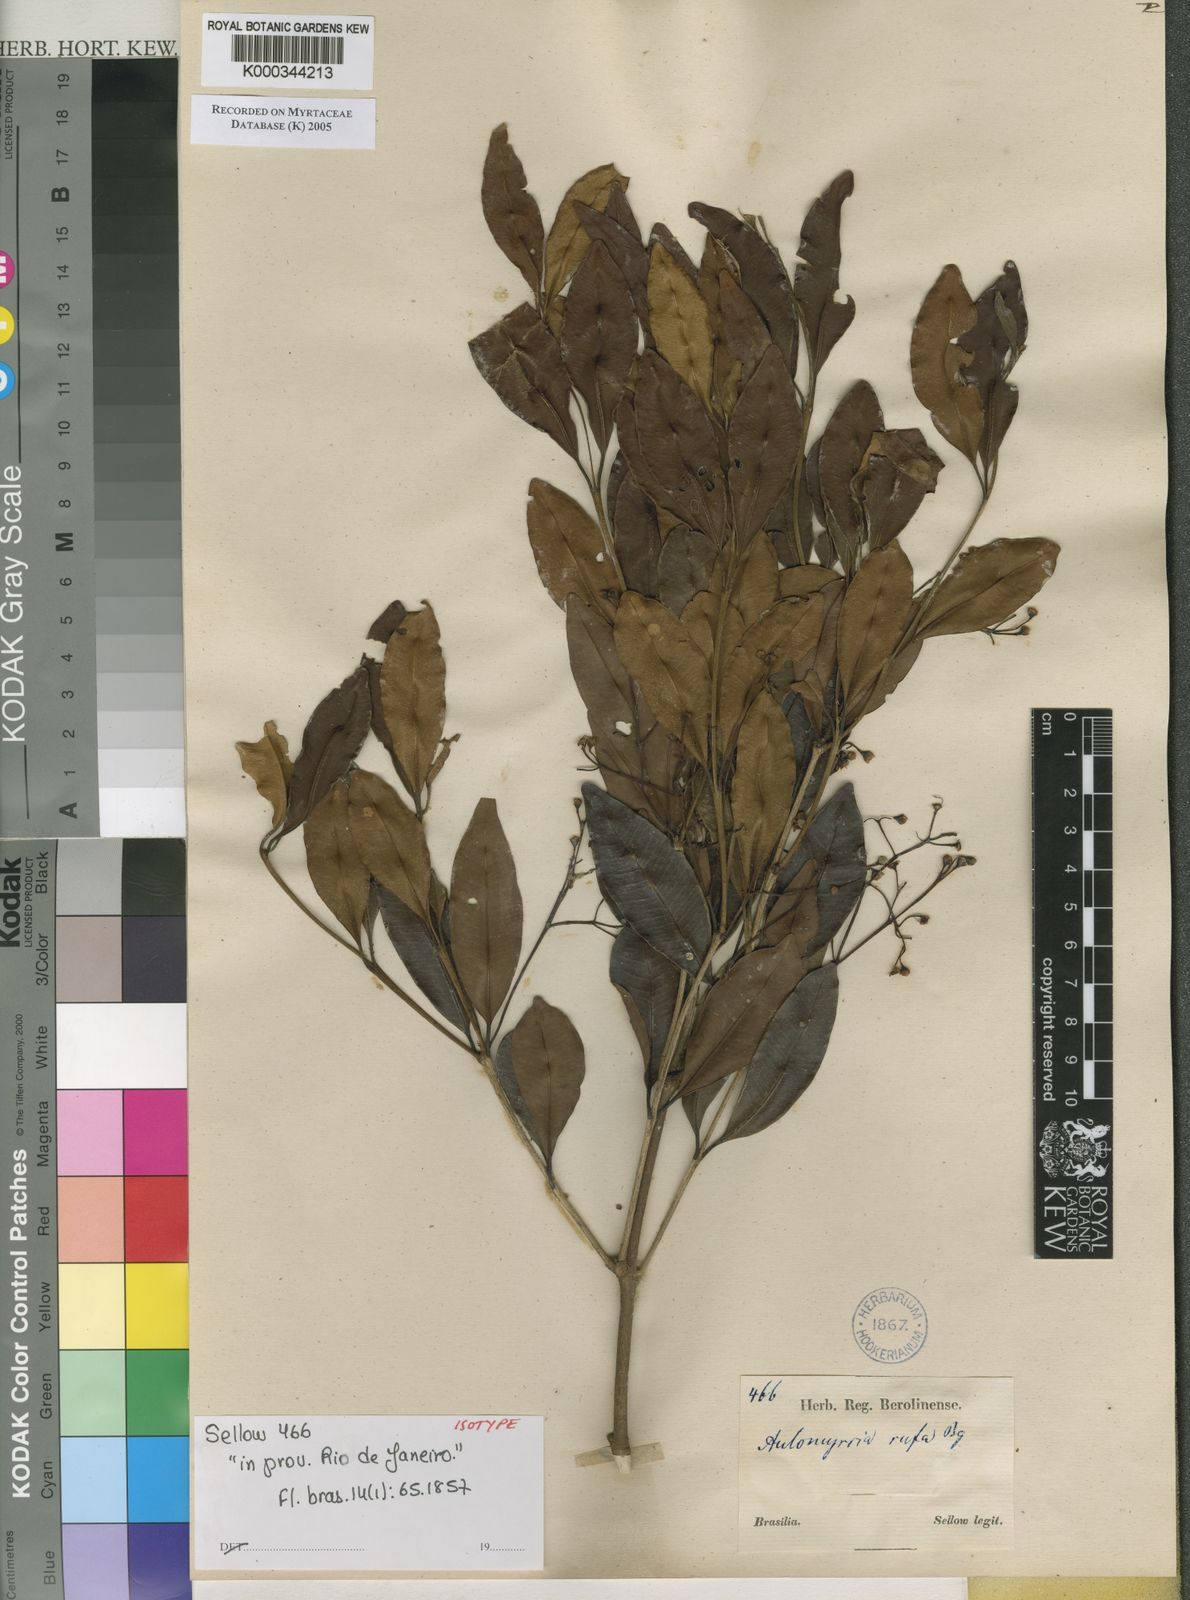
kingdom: Plantae
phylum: Tracheophyta
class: Magnoliopsida
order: Myrtales
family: Myrtaceae
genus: Myrcia
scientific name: Myrcia pulchra
